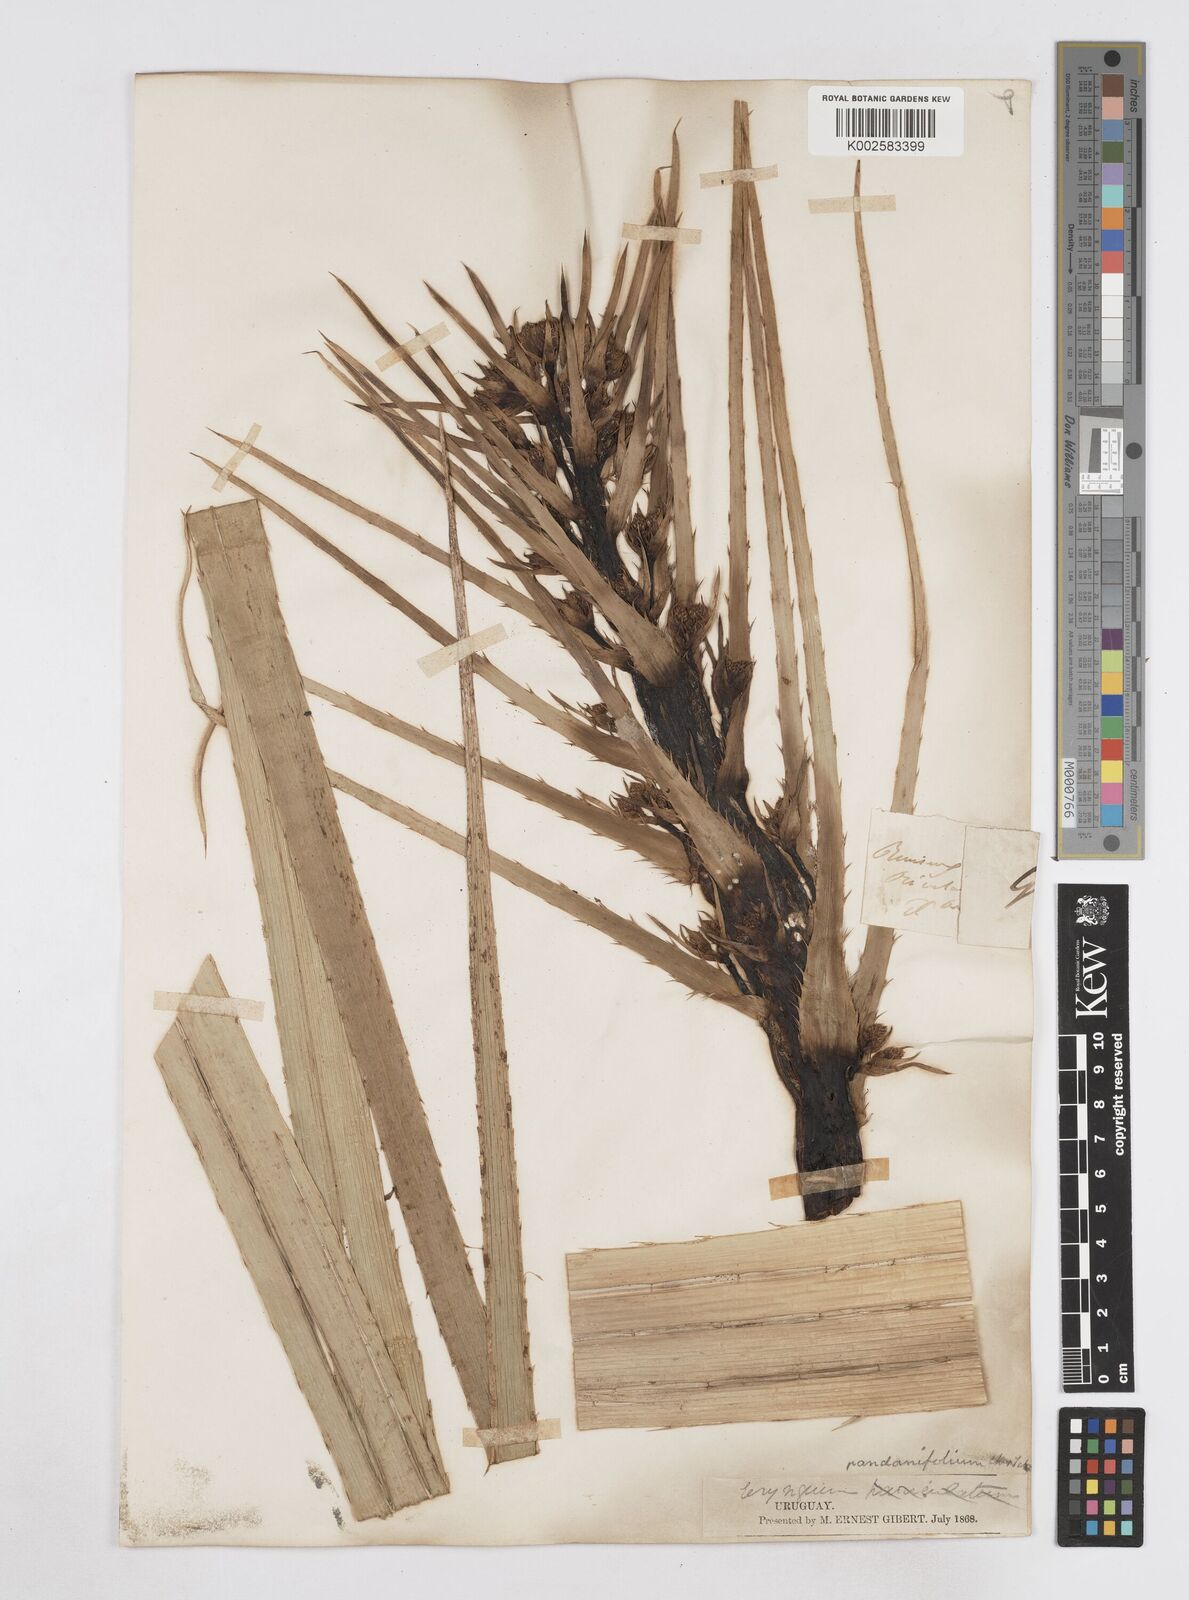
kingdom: Plantae
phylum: Tracheophyta
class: Magnoliopsida
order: Apiales
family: Apiaceae
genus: Eryngium
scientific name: Eryngium pandanifolium
